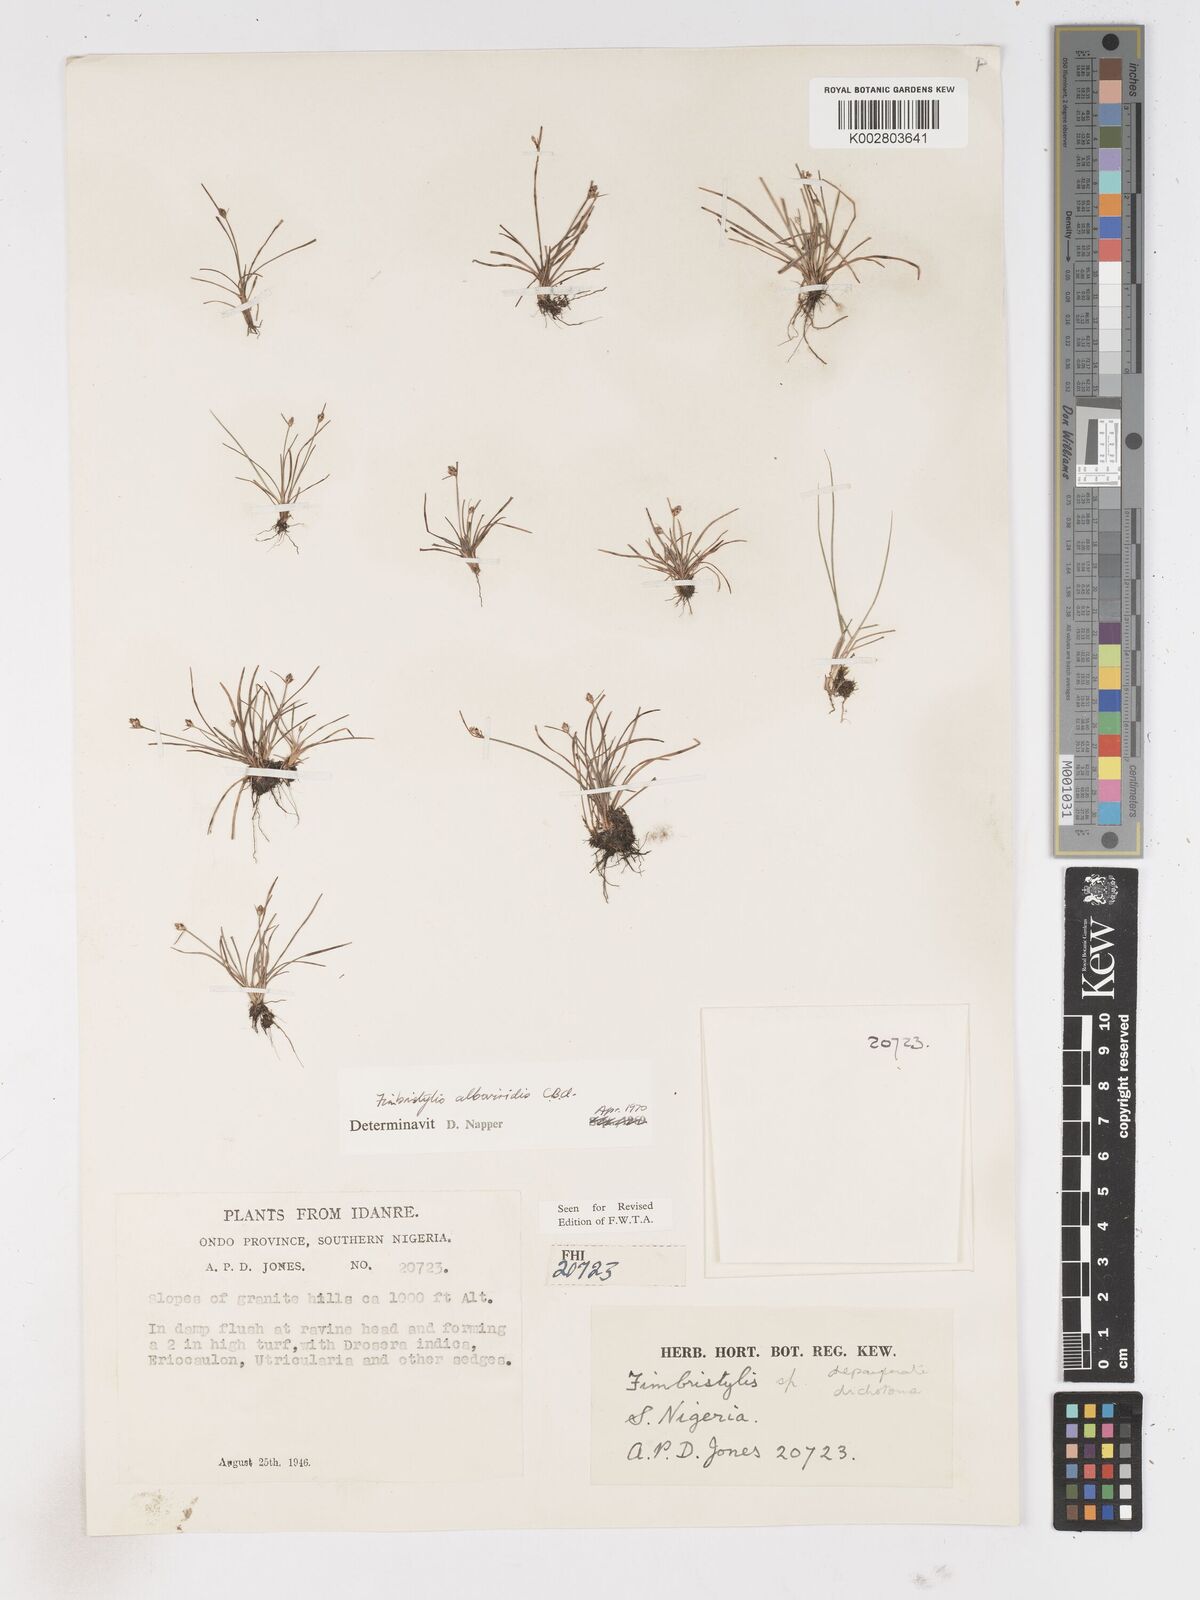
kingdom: Plantae
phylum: Tracheophyta
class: Liliopsida
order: Poales
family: Cyperaceae
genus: Fimbristylis
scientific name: Fimbristylis alboviridis
